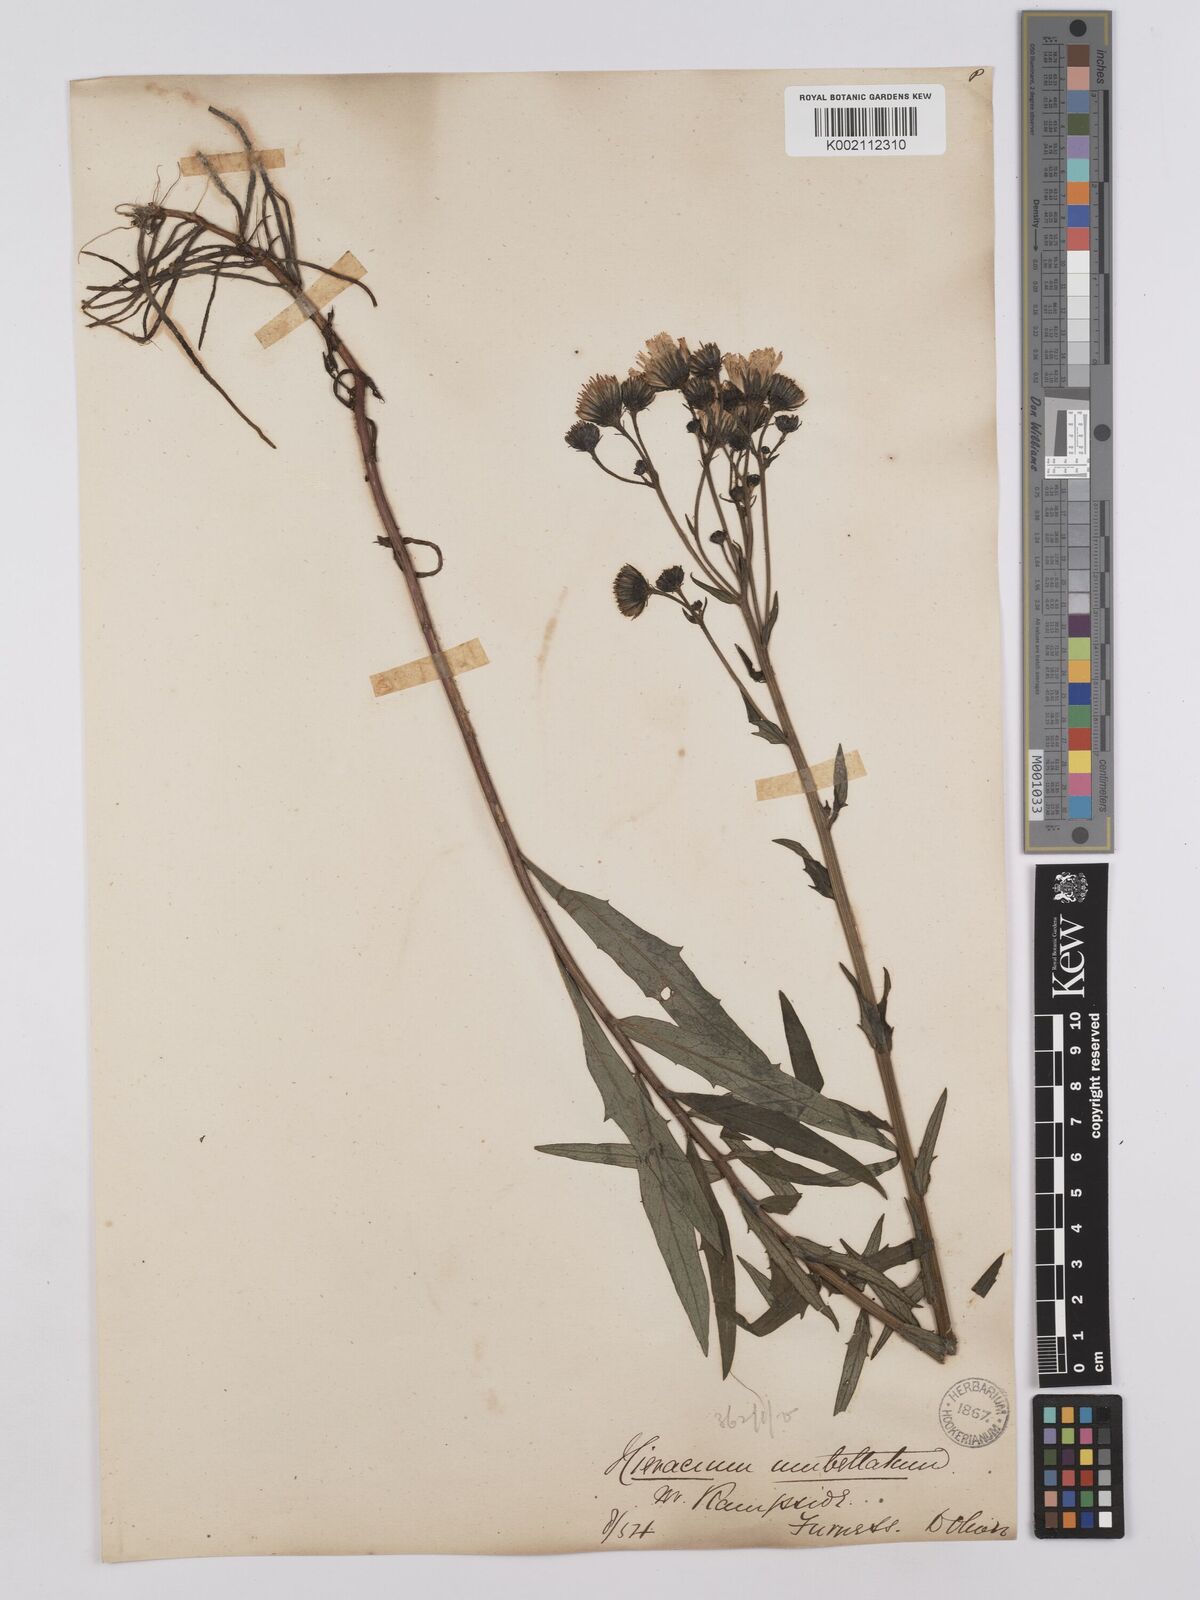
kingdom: Plantae
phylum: Tracheophyta
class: Magnoliopsida
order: Asterales
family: Asteraceae
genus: Hieracium
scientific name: Hieracium umbellatum
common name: Northern hawkweed
